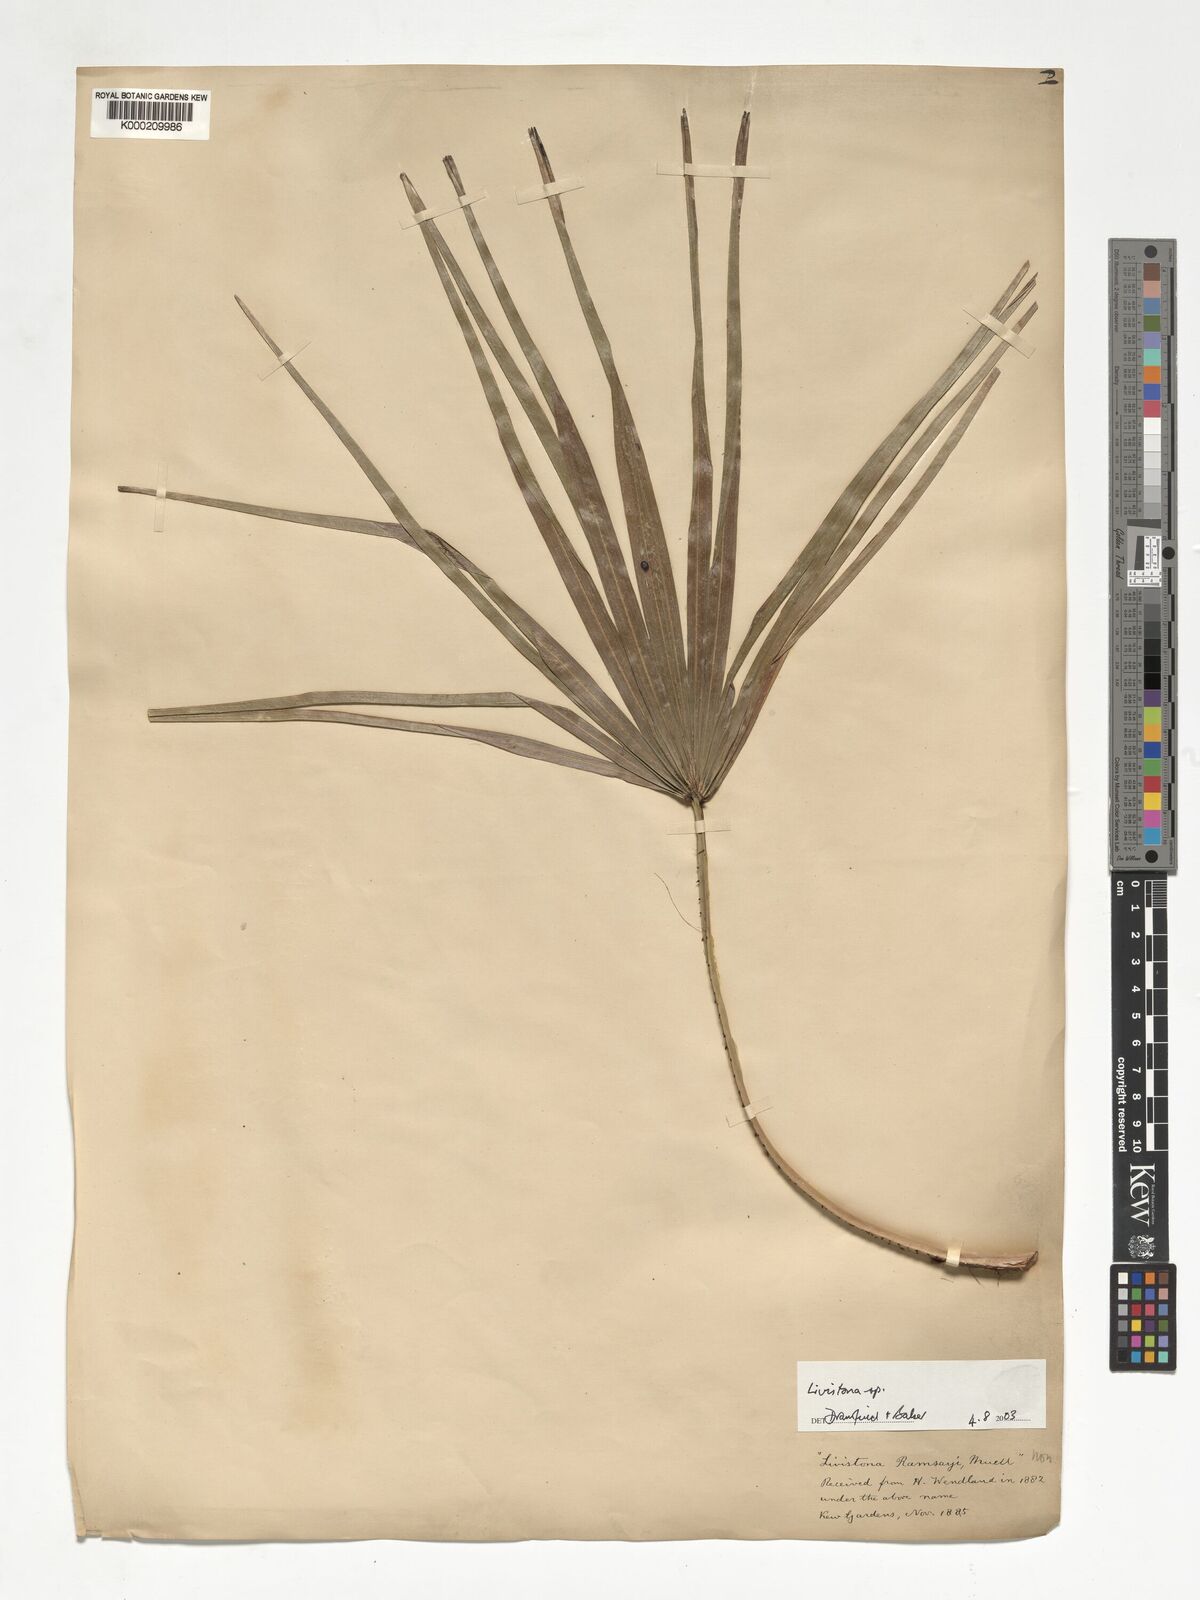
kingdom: Plantae
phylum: Tracheophyta
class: Liliopsida
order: Arecales
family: Arecaceae
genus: Livistona
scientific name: Livistona
